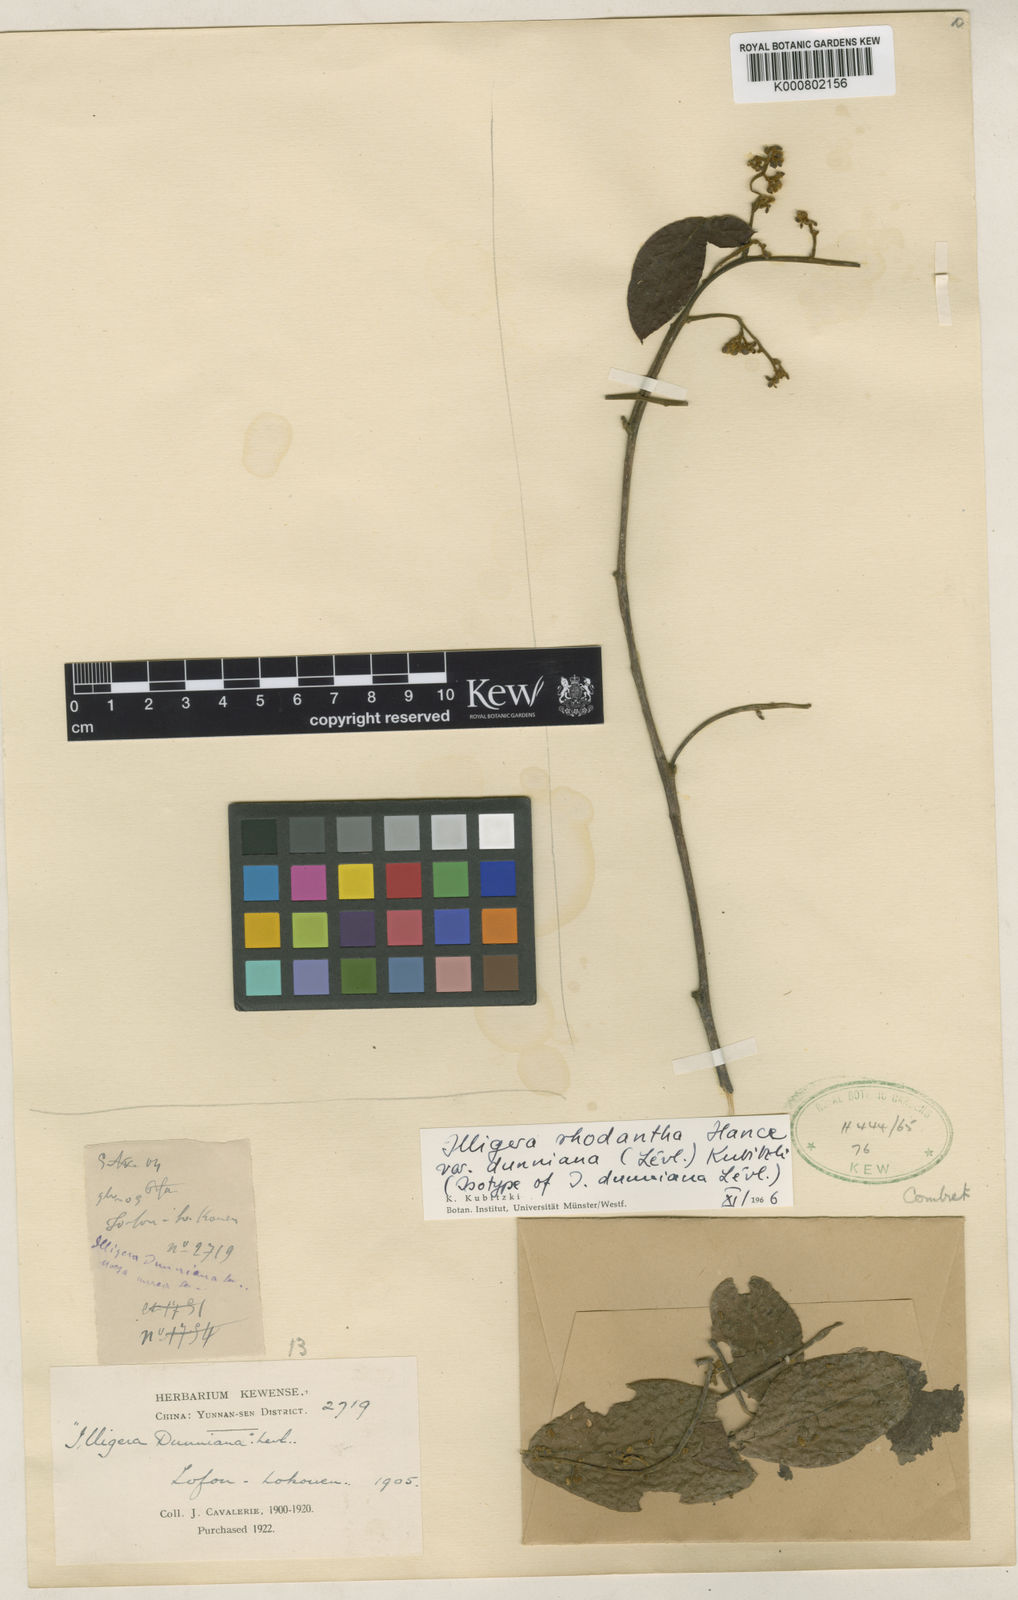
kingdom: Plantae
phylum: Tracheophyta
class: Magnoliopsida
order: Laurales
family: Hernandiaceae
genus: Illigera
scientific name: Illigera rhodantha
